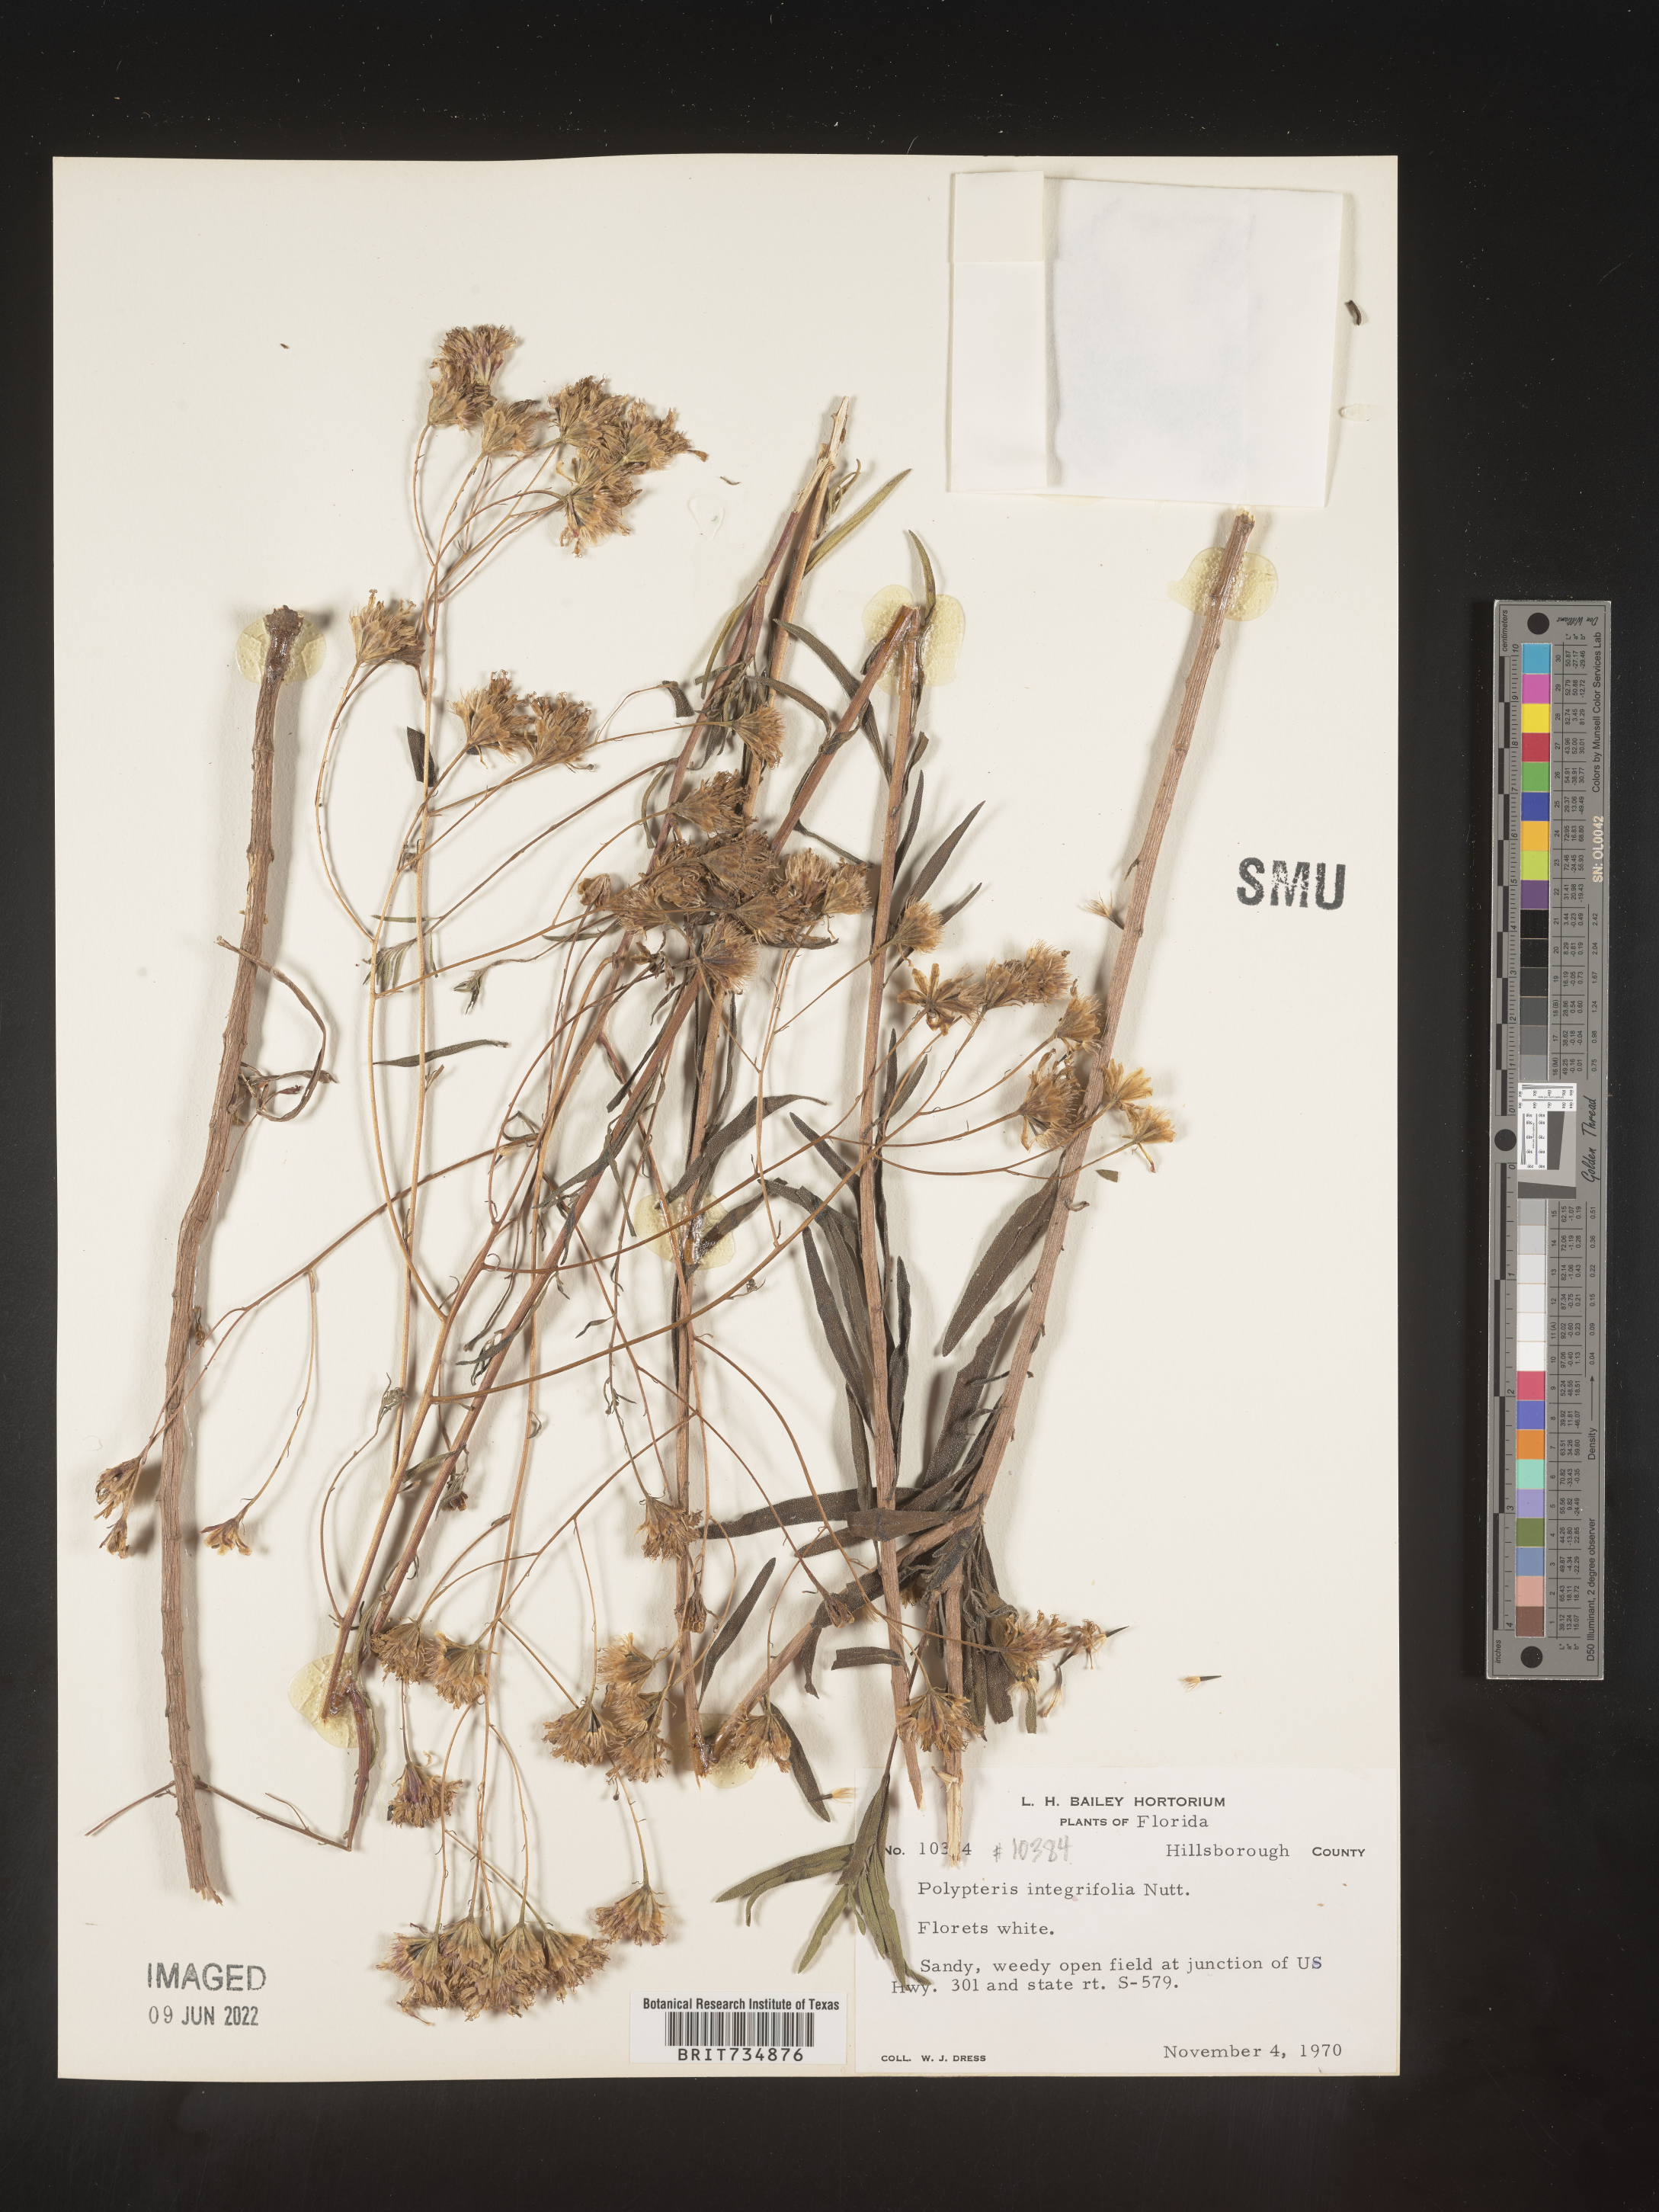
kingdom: Plantae
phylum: Tracheophyta
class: Magnoliopsida
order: Asterales
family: Asteraceae
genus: Palafoxia
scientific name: Palafoxia integrifolia
